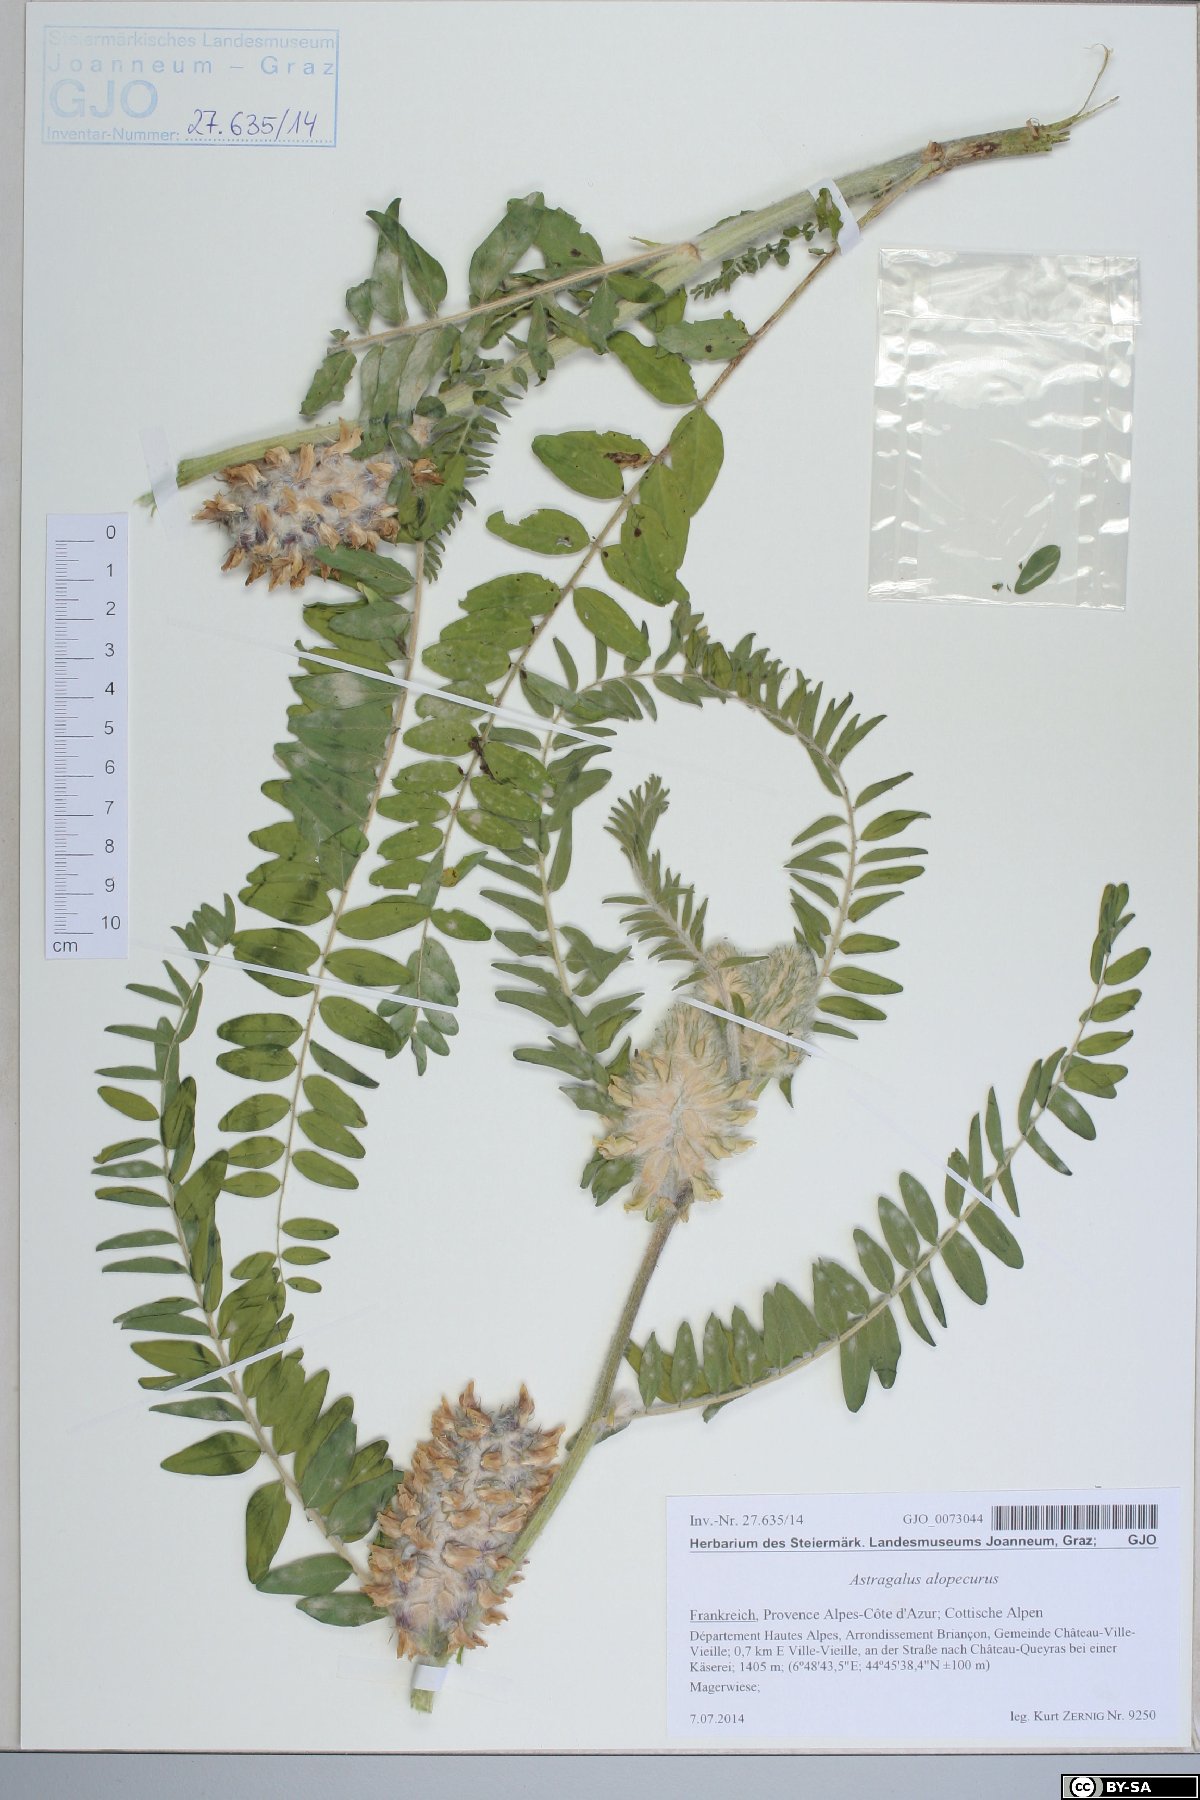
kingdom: Plantae
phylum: Tracheophyta
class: Magnoliopsida
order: Fabales
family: Fabaceae
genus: Astragalus
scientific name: Astragalus alopecurus
